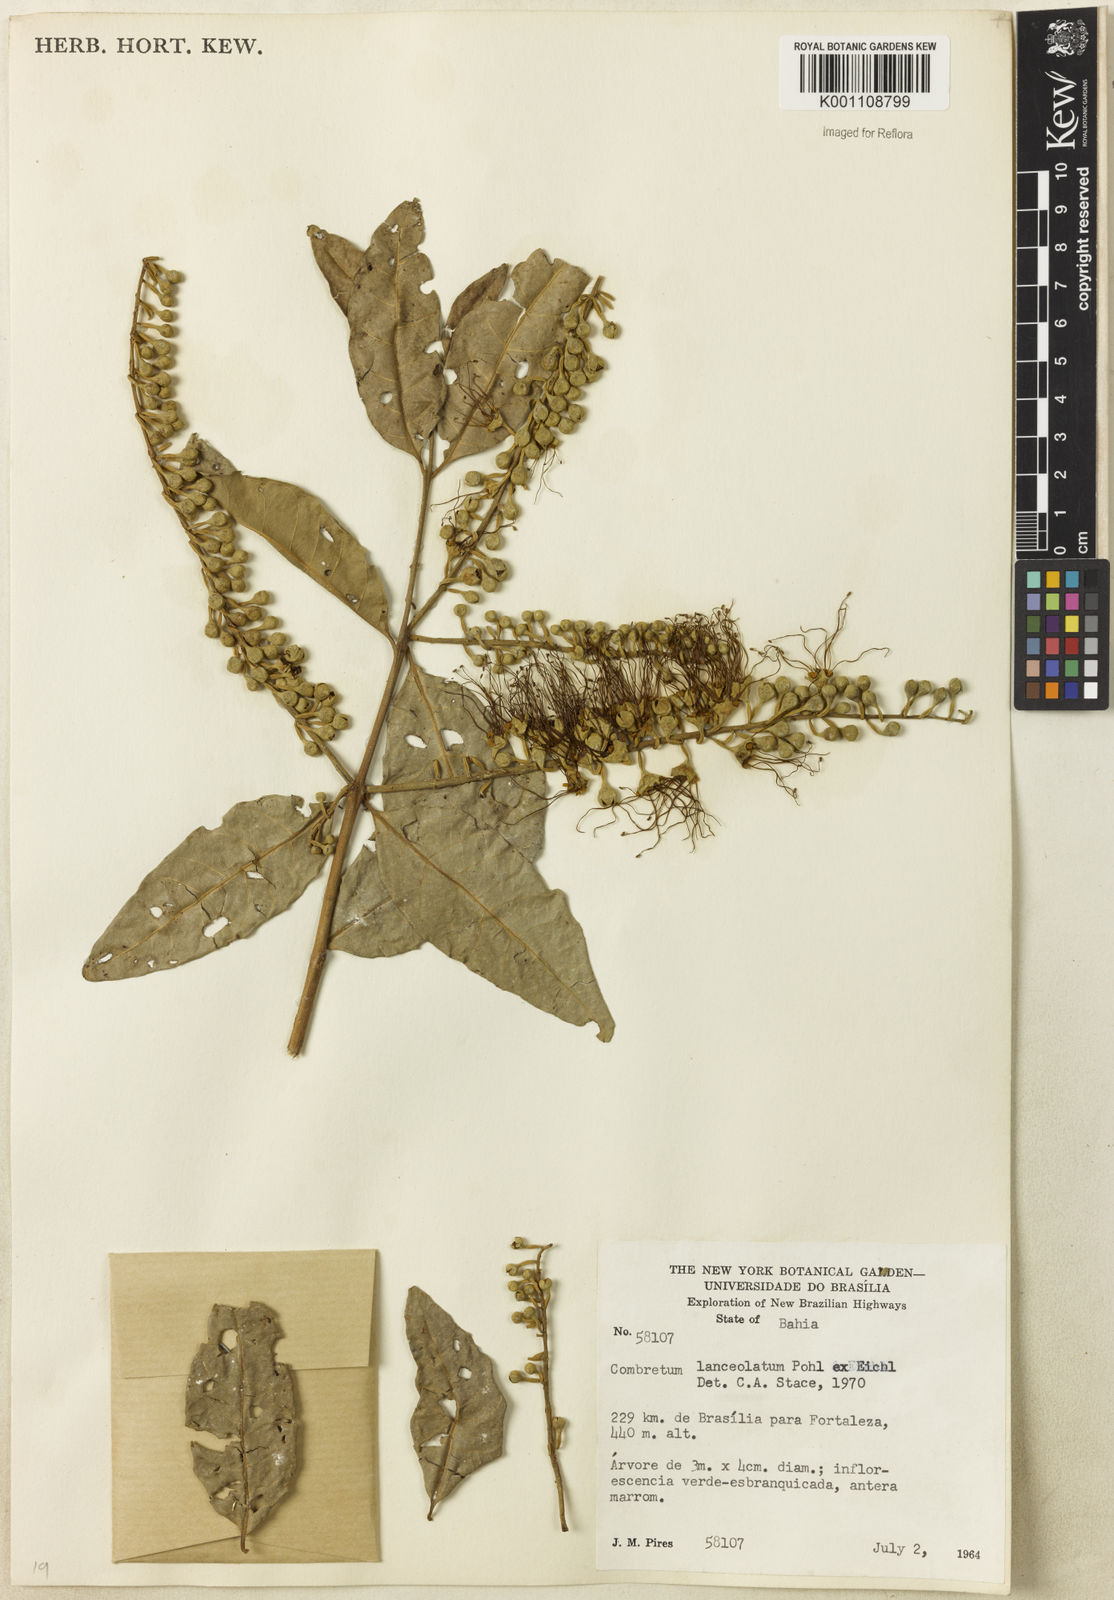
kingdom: Plantae
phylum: Tracheophyta
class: Magnoliopsida
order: Myrtales
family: Combretaceae
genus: Combretum
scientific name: Combretum lanceolatum
